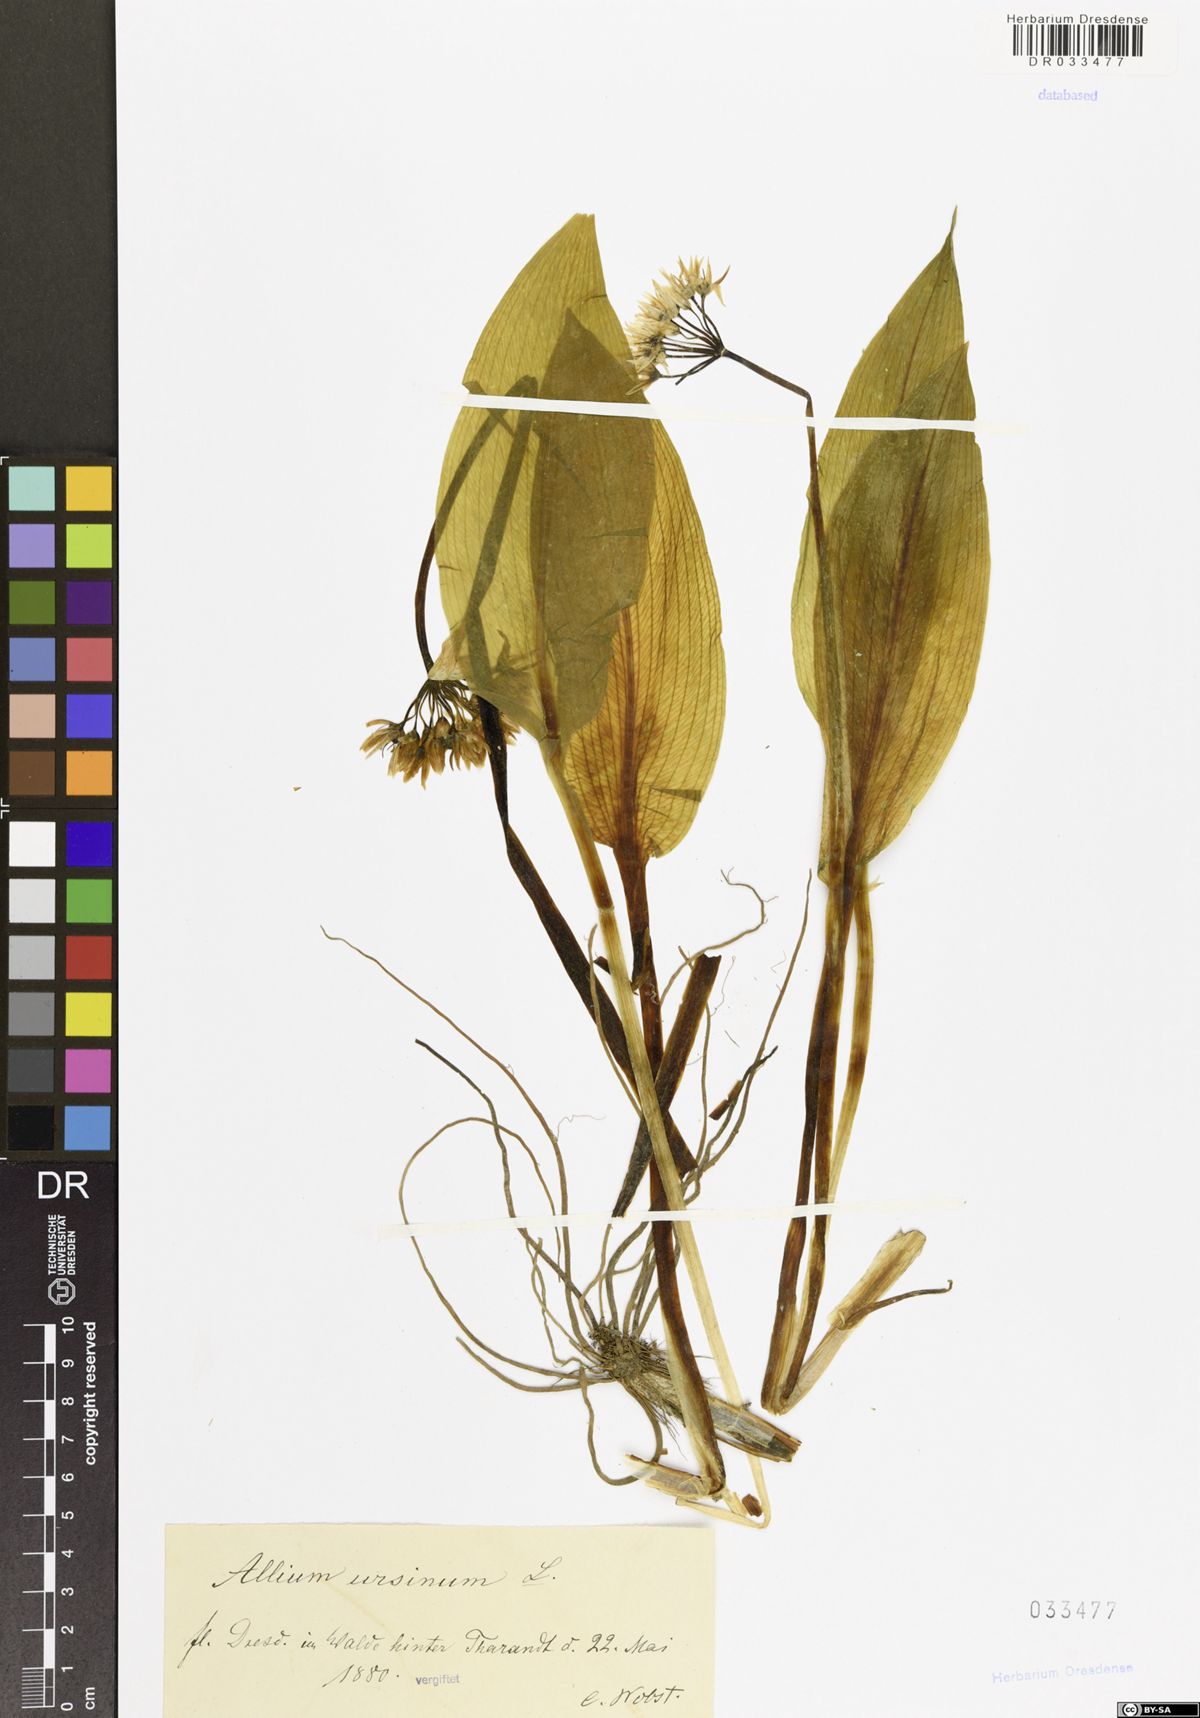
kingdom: Plantae
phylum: Tracheophyta
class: Liliopsida
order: Asparagales
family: Amaryllidaceae
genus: Allium
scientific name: Allium ursinum
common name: Ramsons
